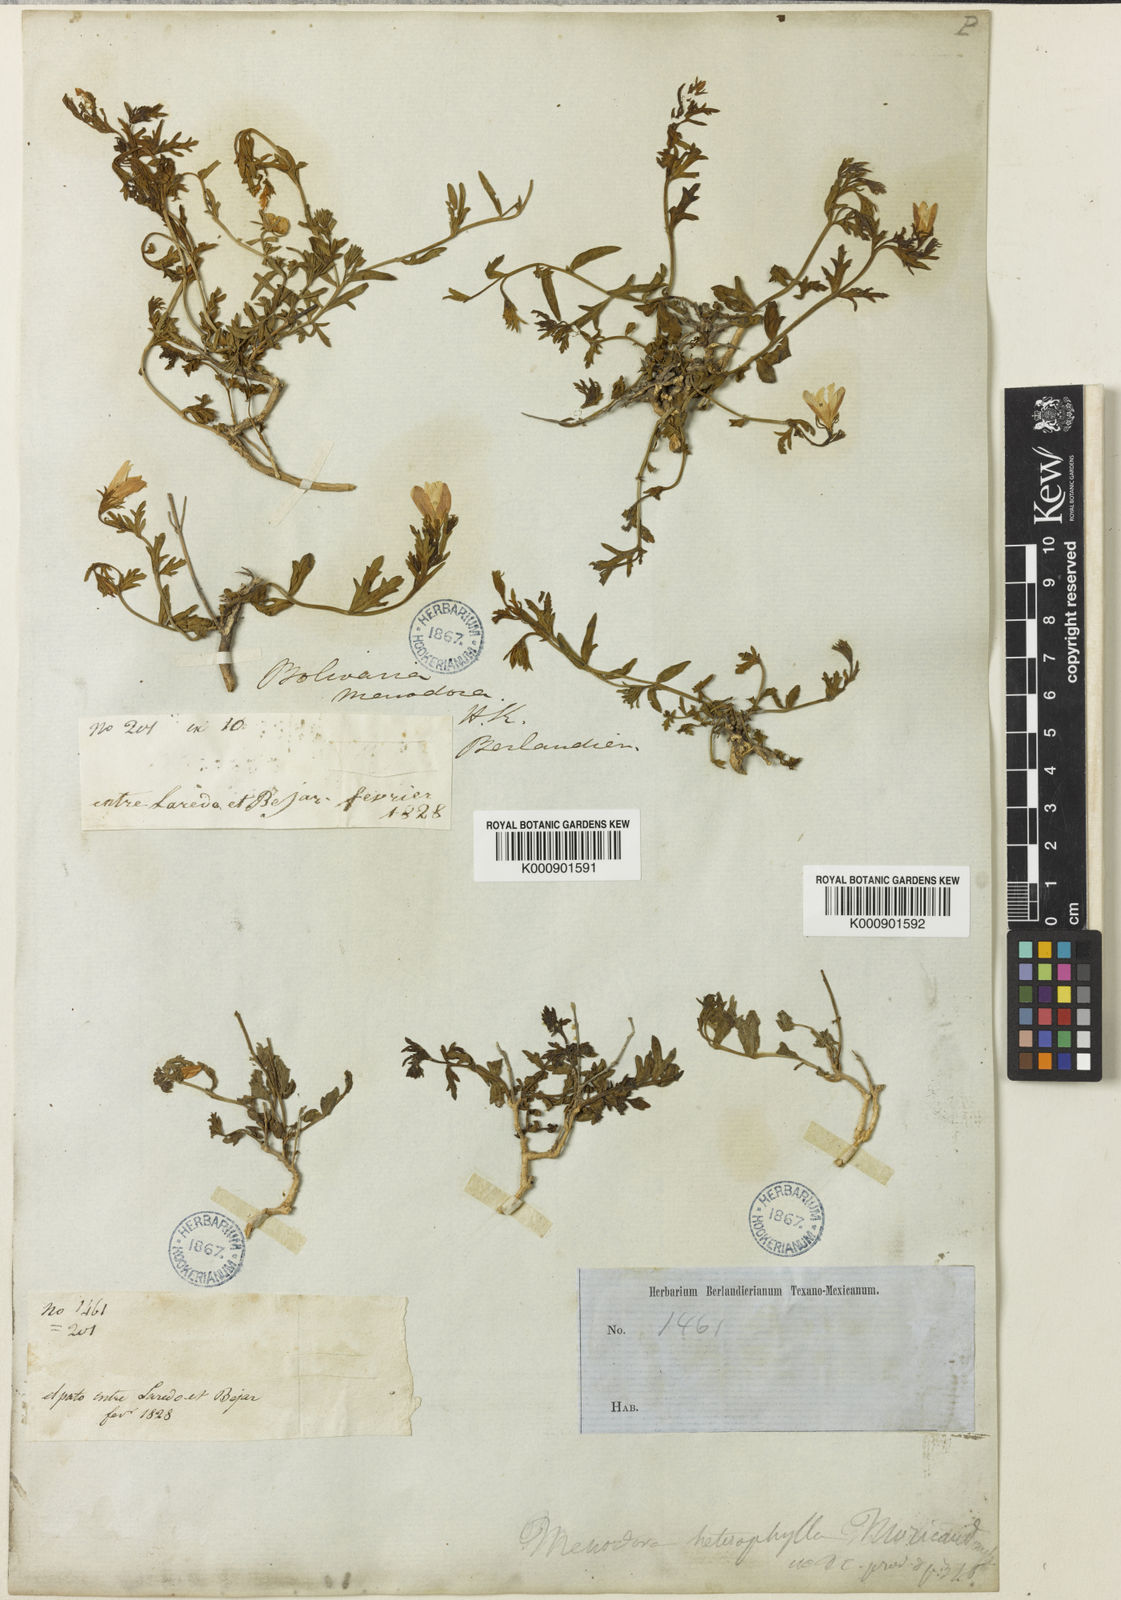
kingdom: Plantae
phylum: Tracheophyta
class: Magnoliopsida
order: Lamiales
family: Oleaceae
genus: Menodora
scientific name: Menodora heterophylla
